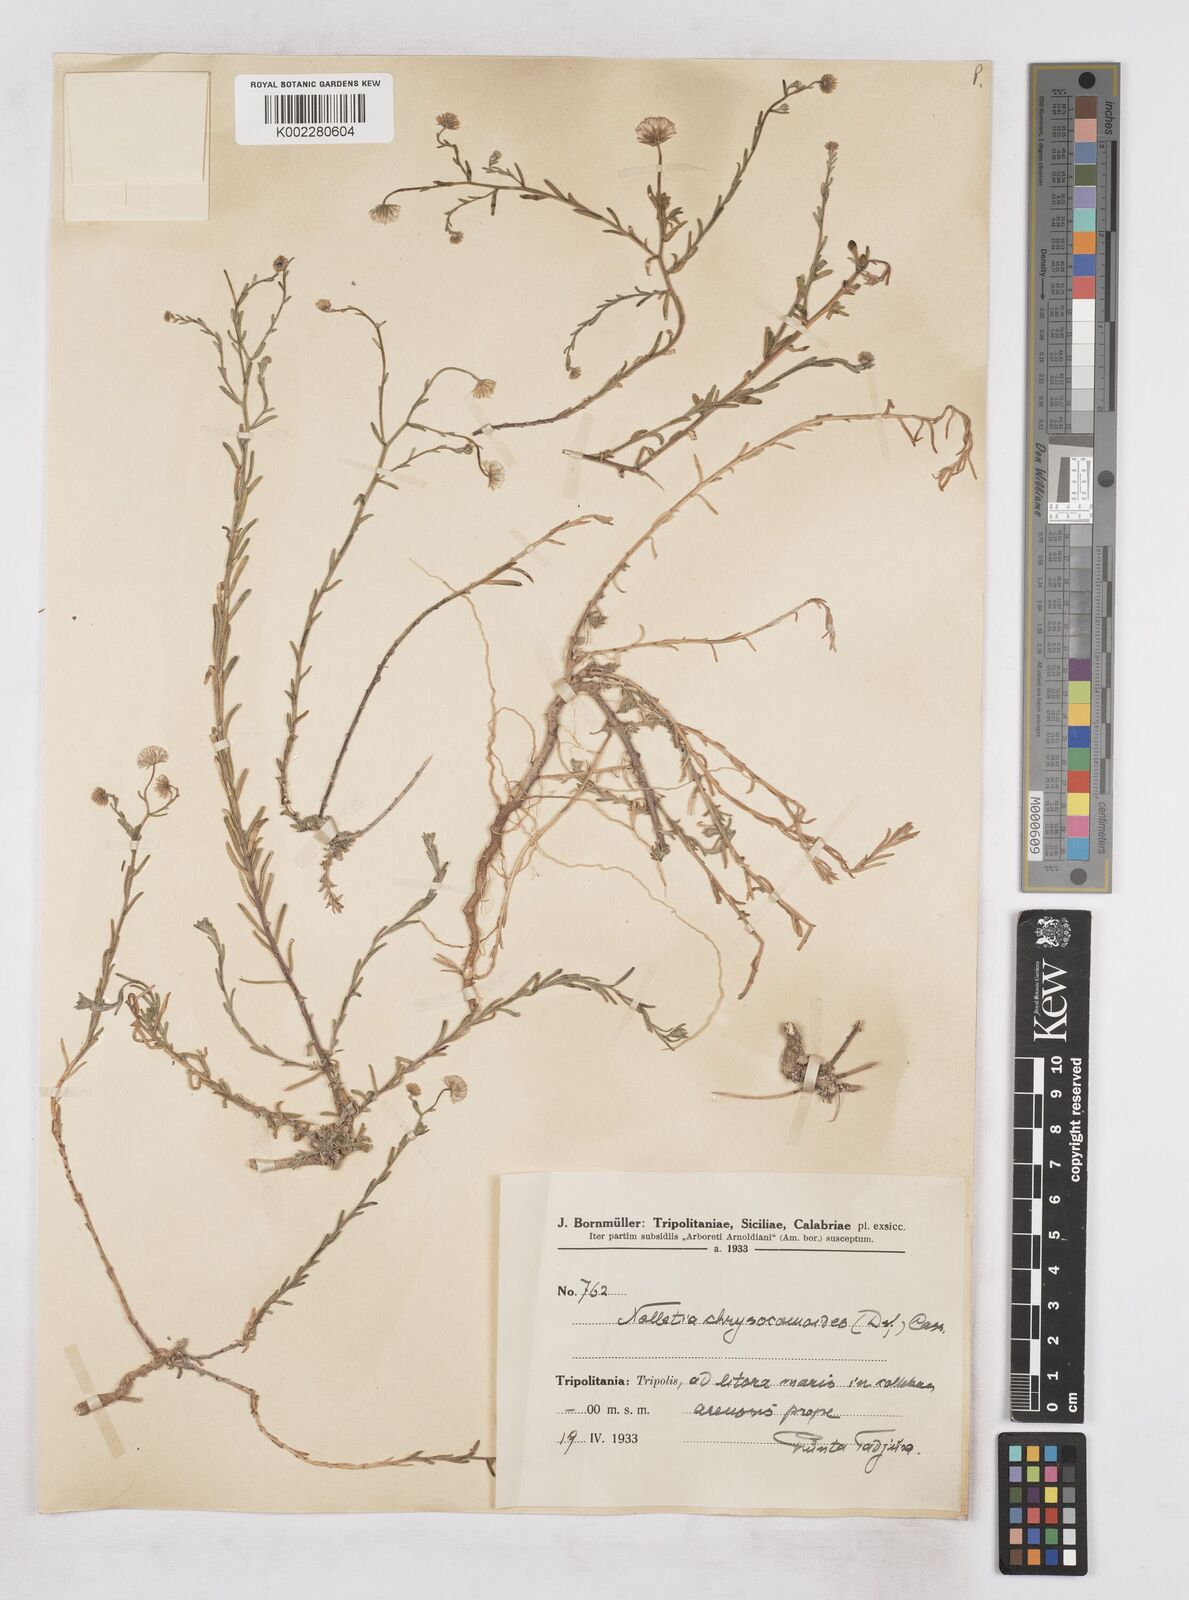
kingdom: Plantae
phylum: Tracheophyta
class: Magnoliopsida
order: Asterales
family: Asteraceae
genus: Nolletia
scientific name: Nolletia chrysocomoides
